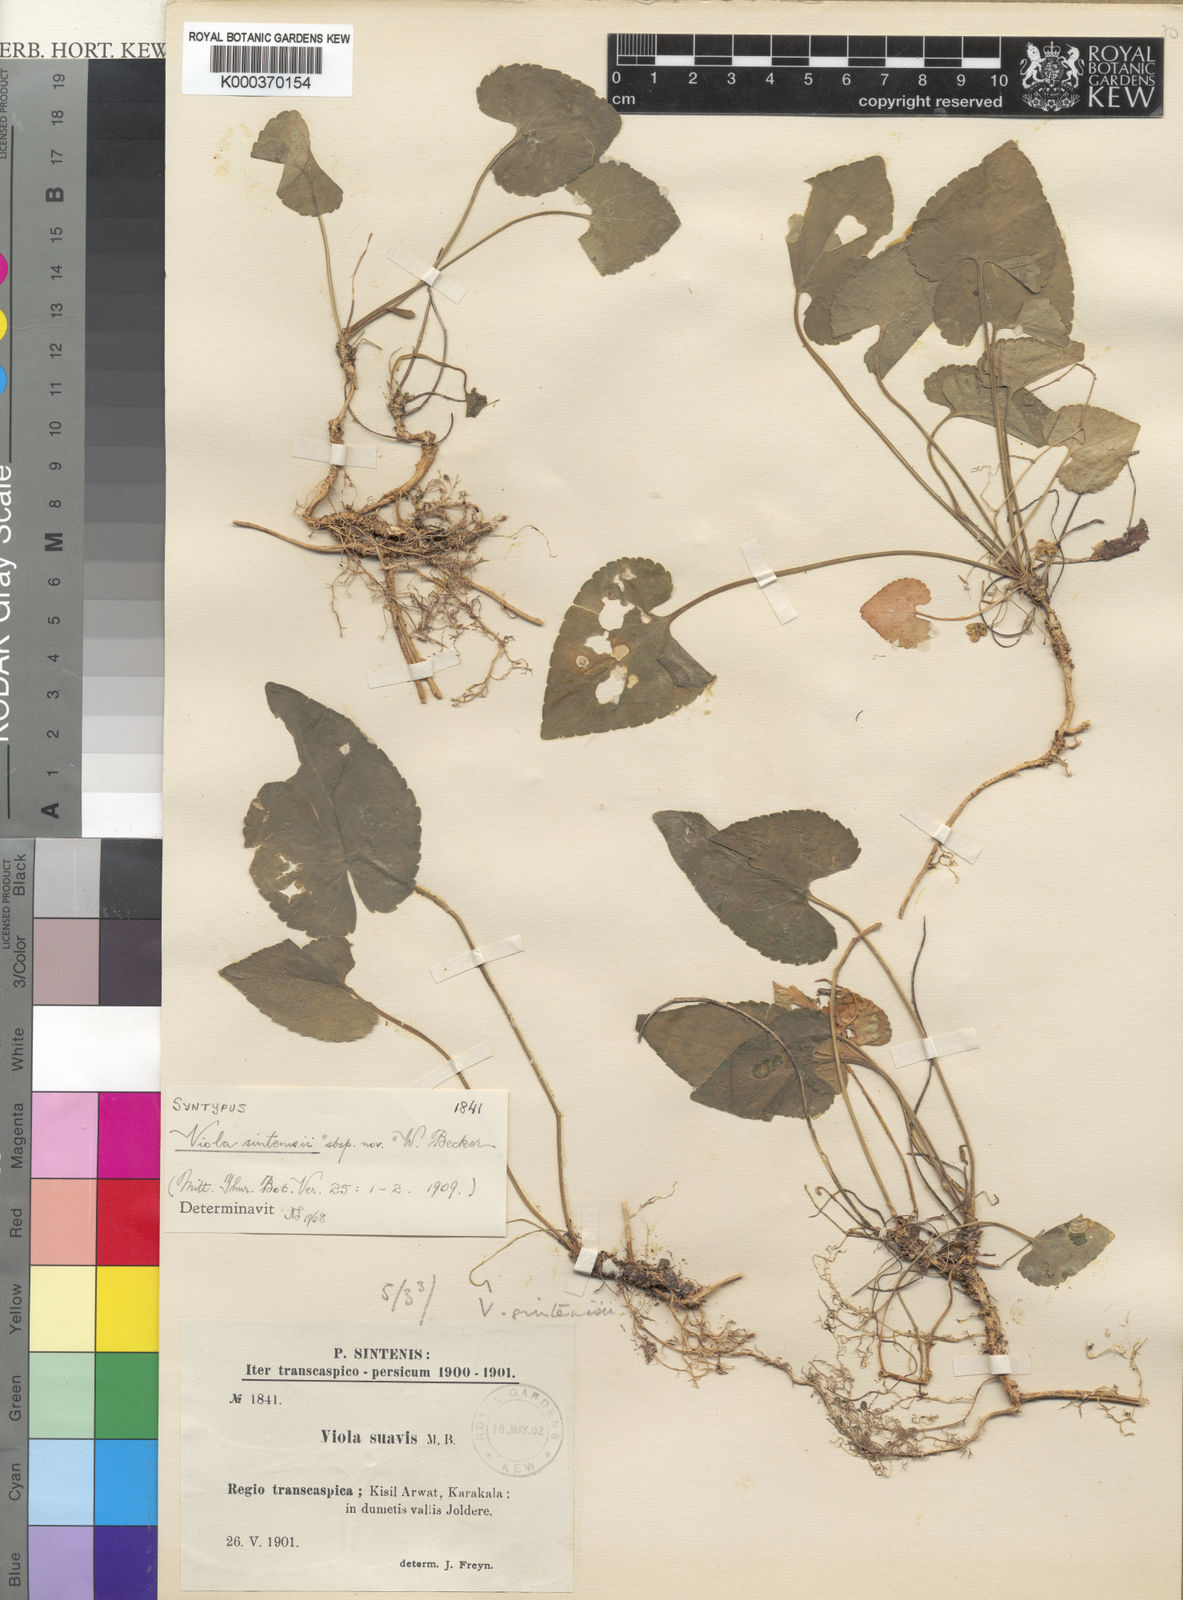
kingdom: Plantae
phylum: Tracheophyta
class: Magnoliopsida
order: Malpighiales
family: Violaceae
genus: Viola
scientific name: Viola alba
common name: White violet
